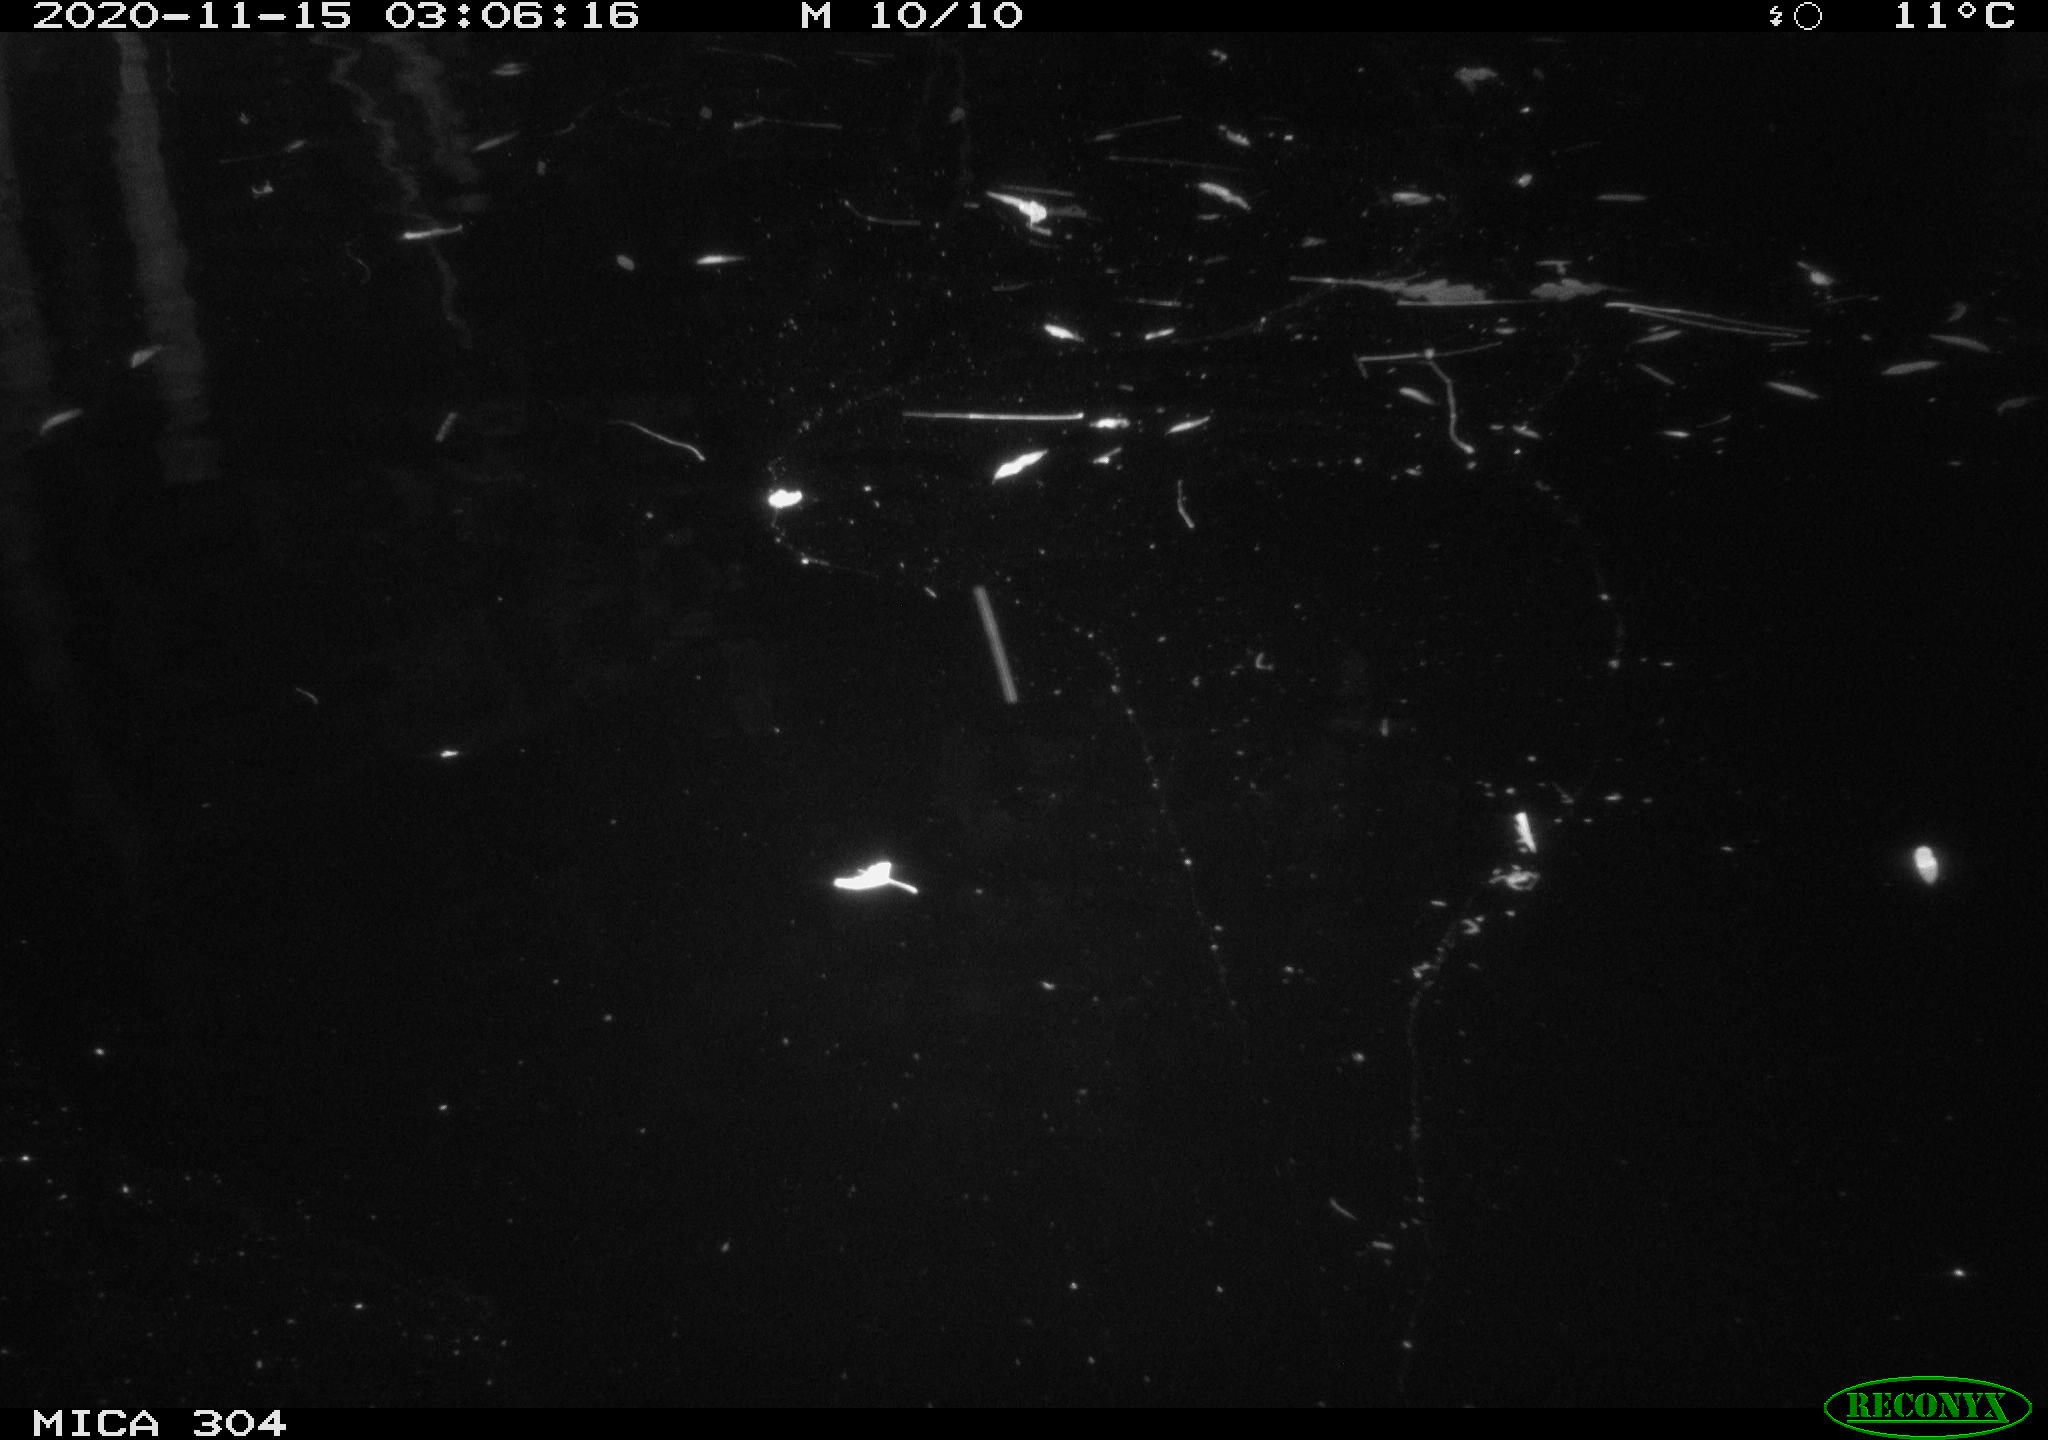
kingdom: Animalia
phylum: Chordata
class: Aves
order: Gruiformes
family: Rallidae
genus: Gallinula
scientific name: Gallinula chloropus
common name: Common moorhen
